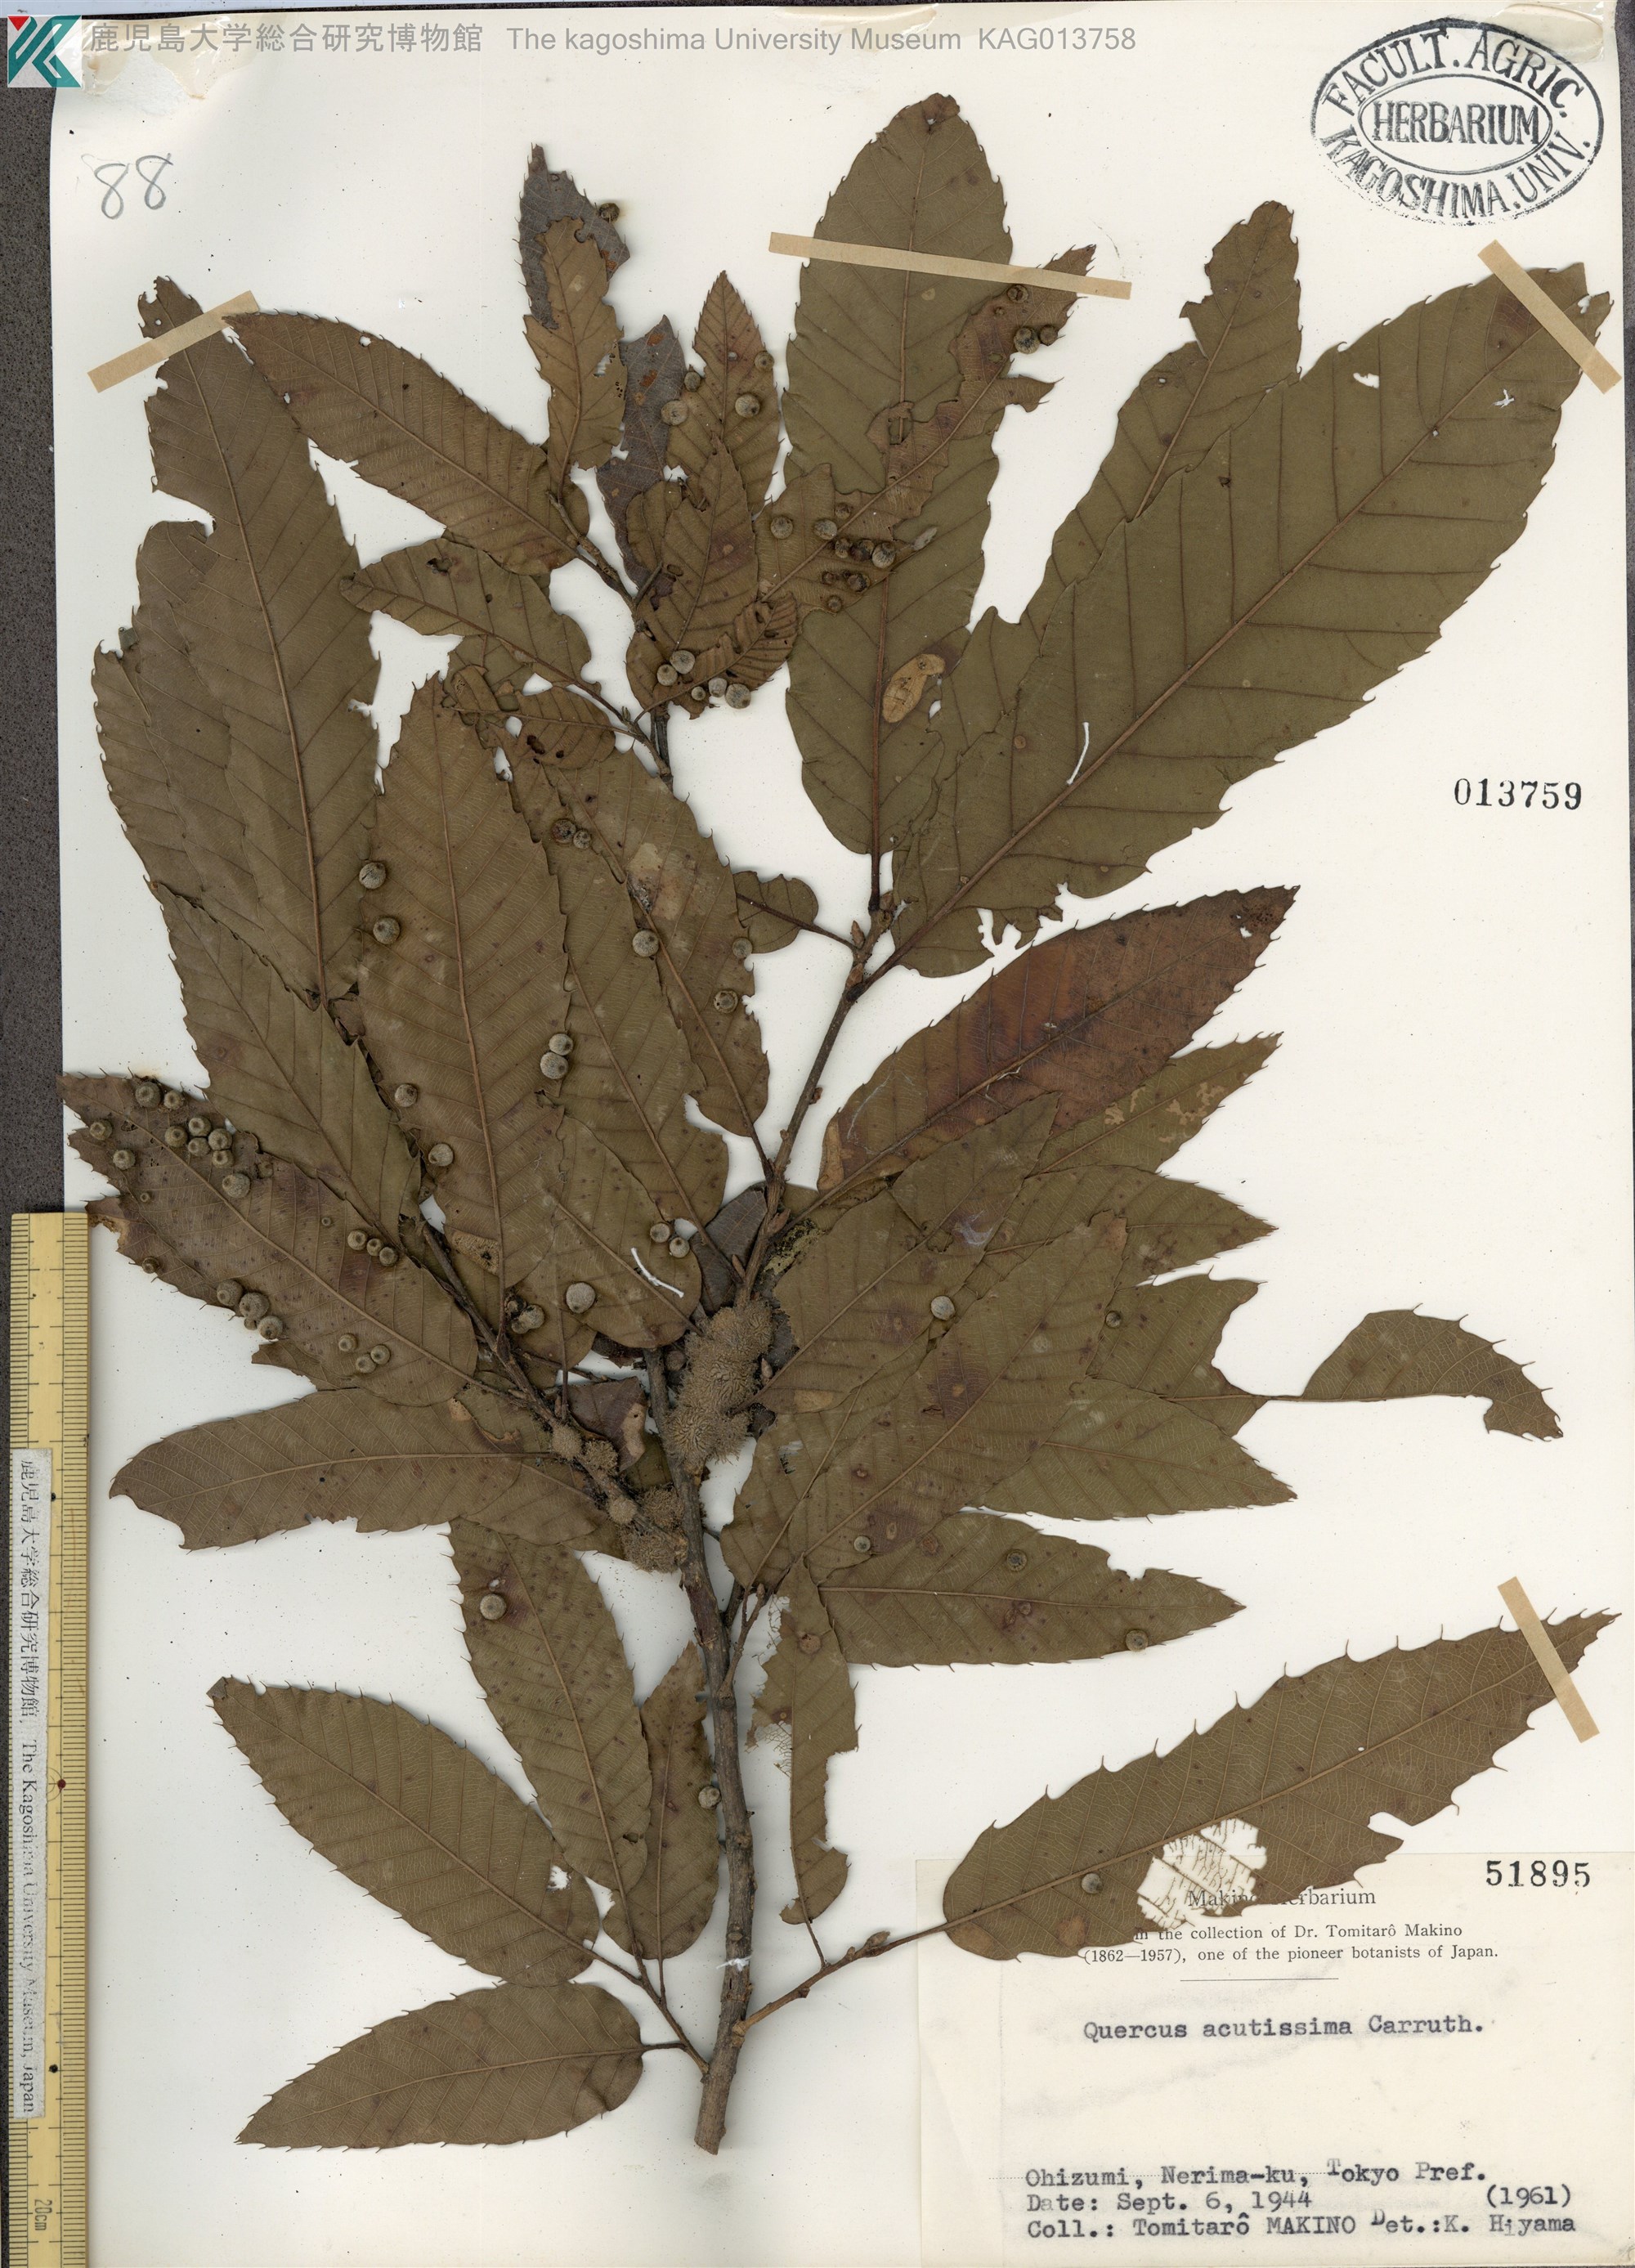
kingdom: Plantae
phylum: Tracheophyta
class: Magnoliopsida
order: Fagales
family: Fagaceae
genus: Quercus
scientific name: Quercus acutissima
